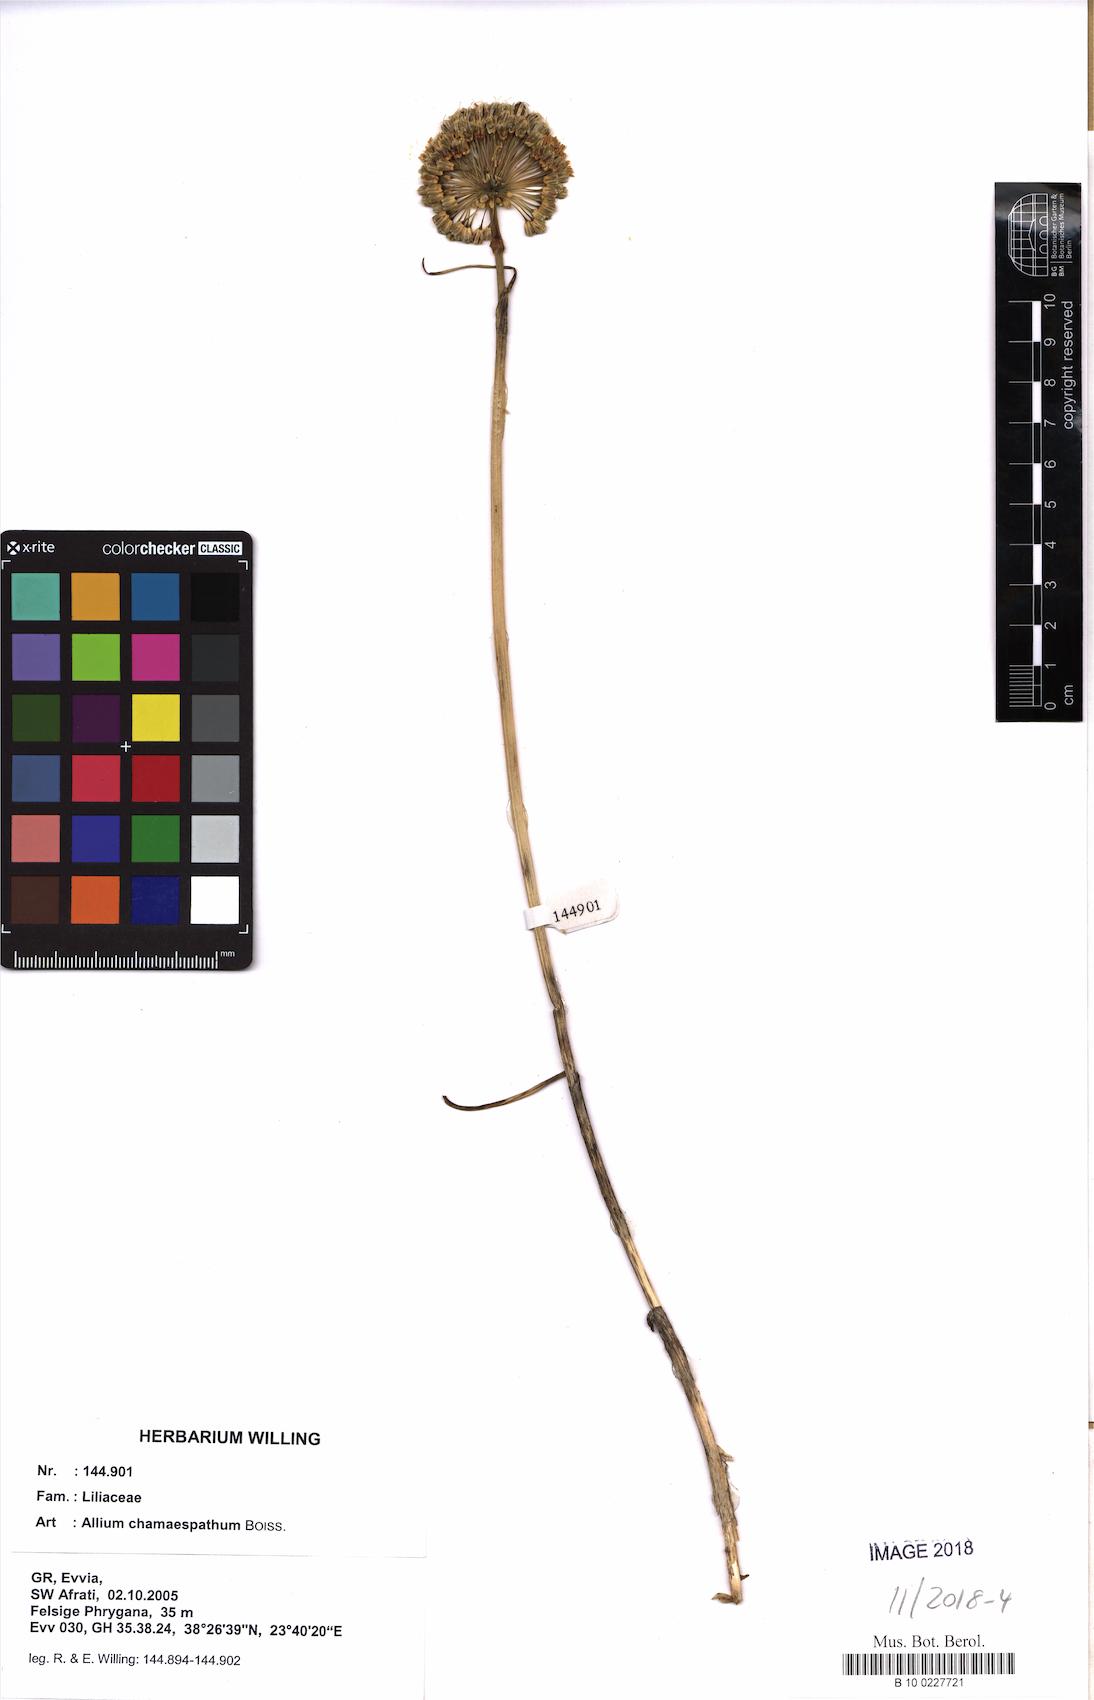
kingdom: Plantae
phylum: Tracheophyta
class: Liliopsida
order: Asparagales
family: Amaryllidaceae
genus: Allium
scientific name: Allium chamaespathum
